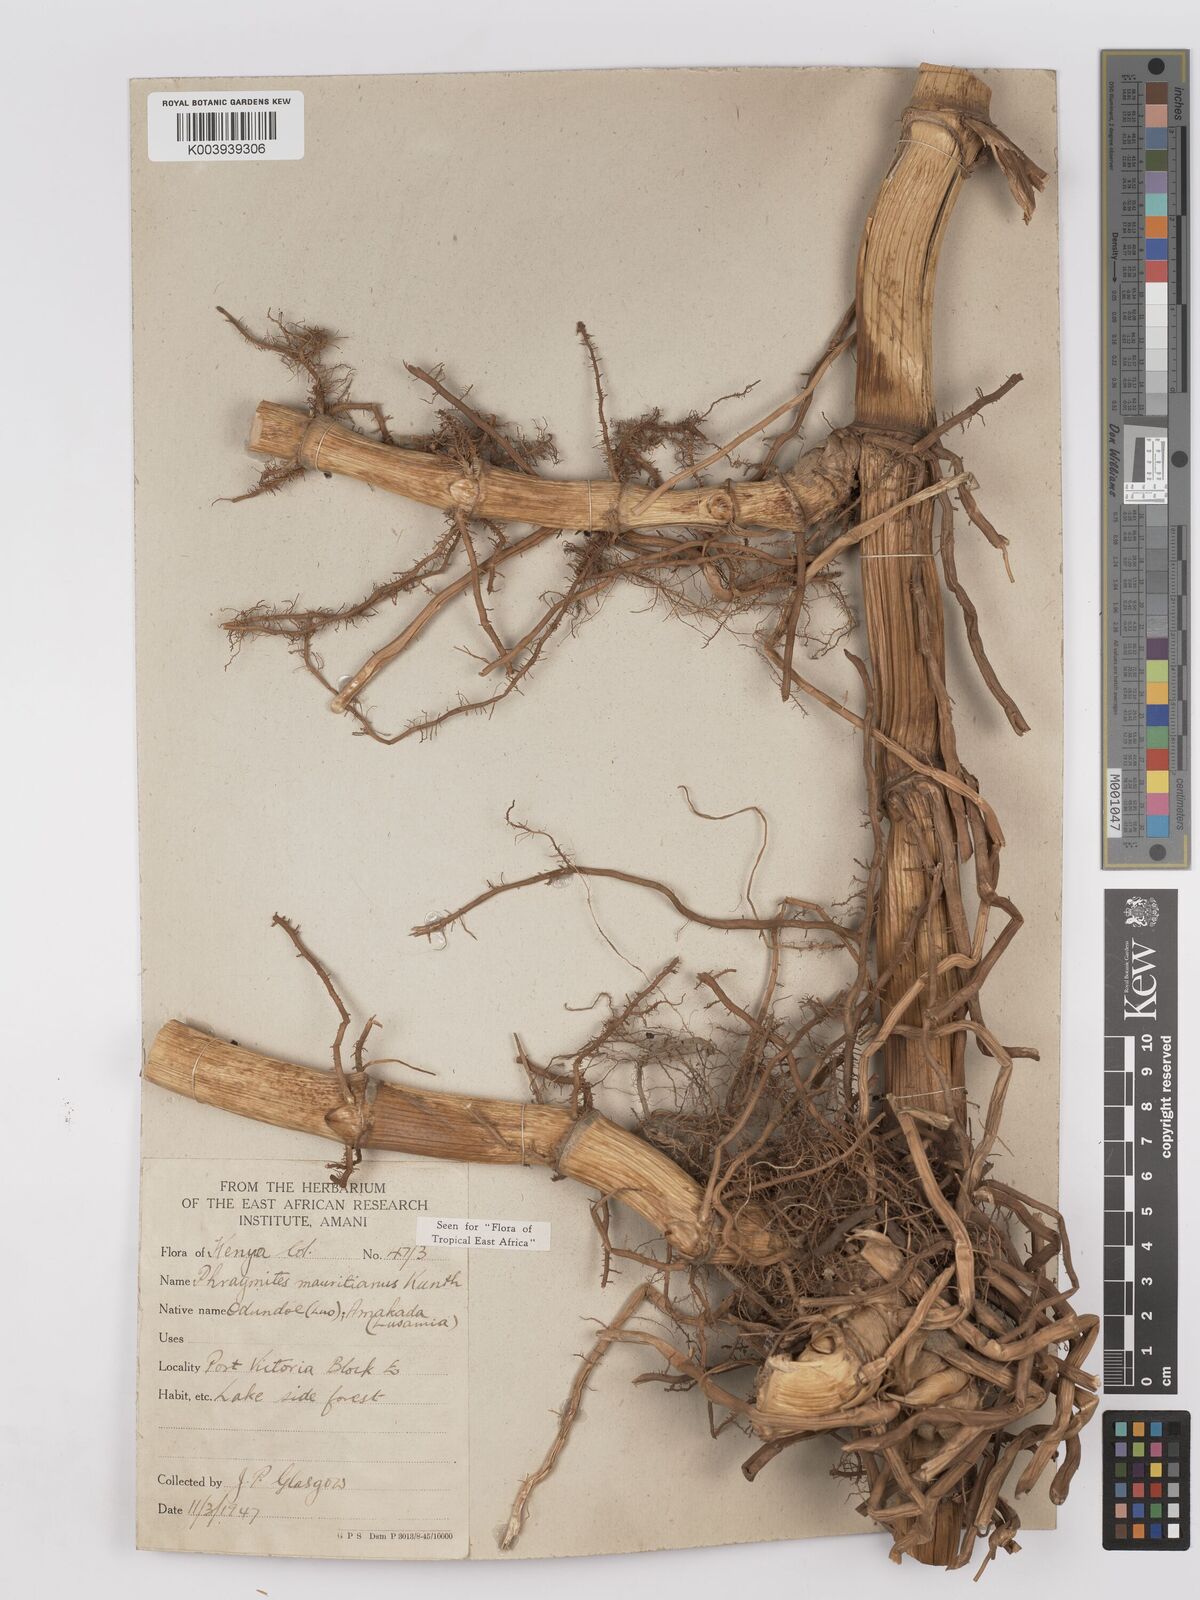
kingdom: Plantae
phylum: Tracheophyta
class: Liliopsida
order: Poales
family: Poaceae
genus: Phragmites
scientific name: Phragmites mauritianus
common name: Reed grass
